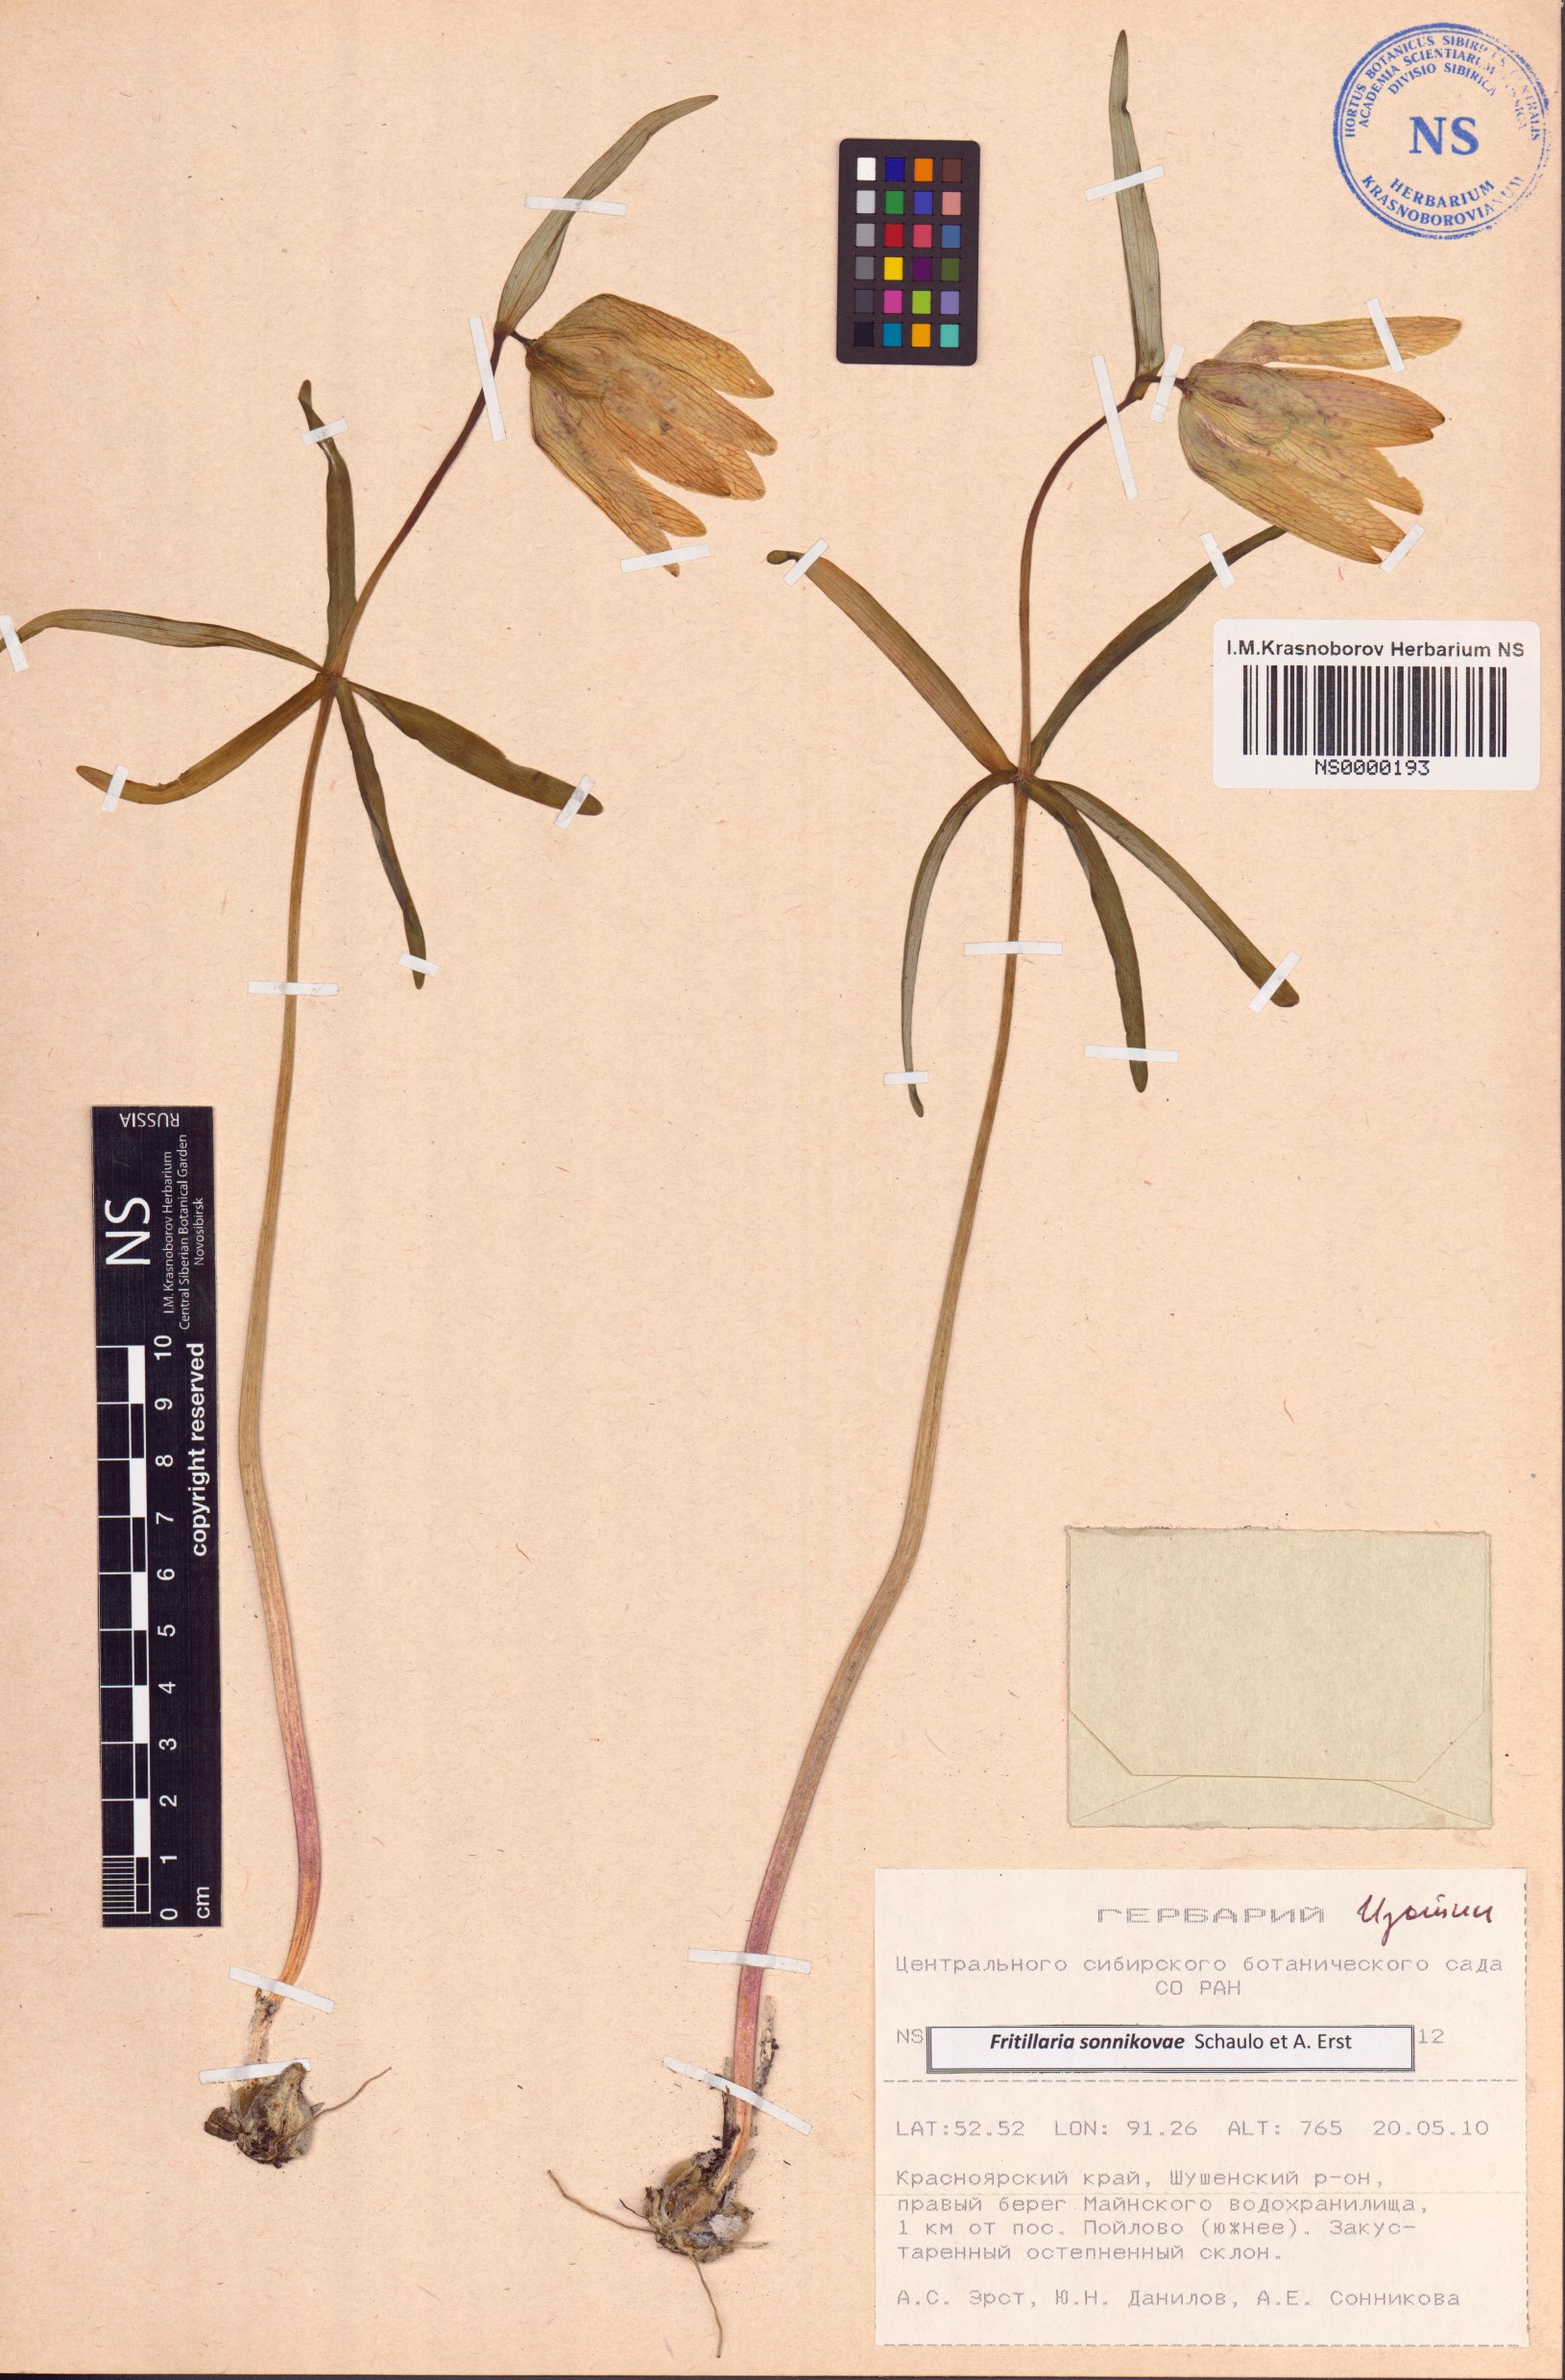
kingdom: Plantae
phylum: Tracheophyta
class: Liliopsida
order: Liliales
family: Liliaceae
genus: Fritillaria
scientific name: Fritillaria sonnikovae
